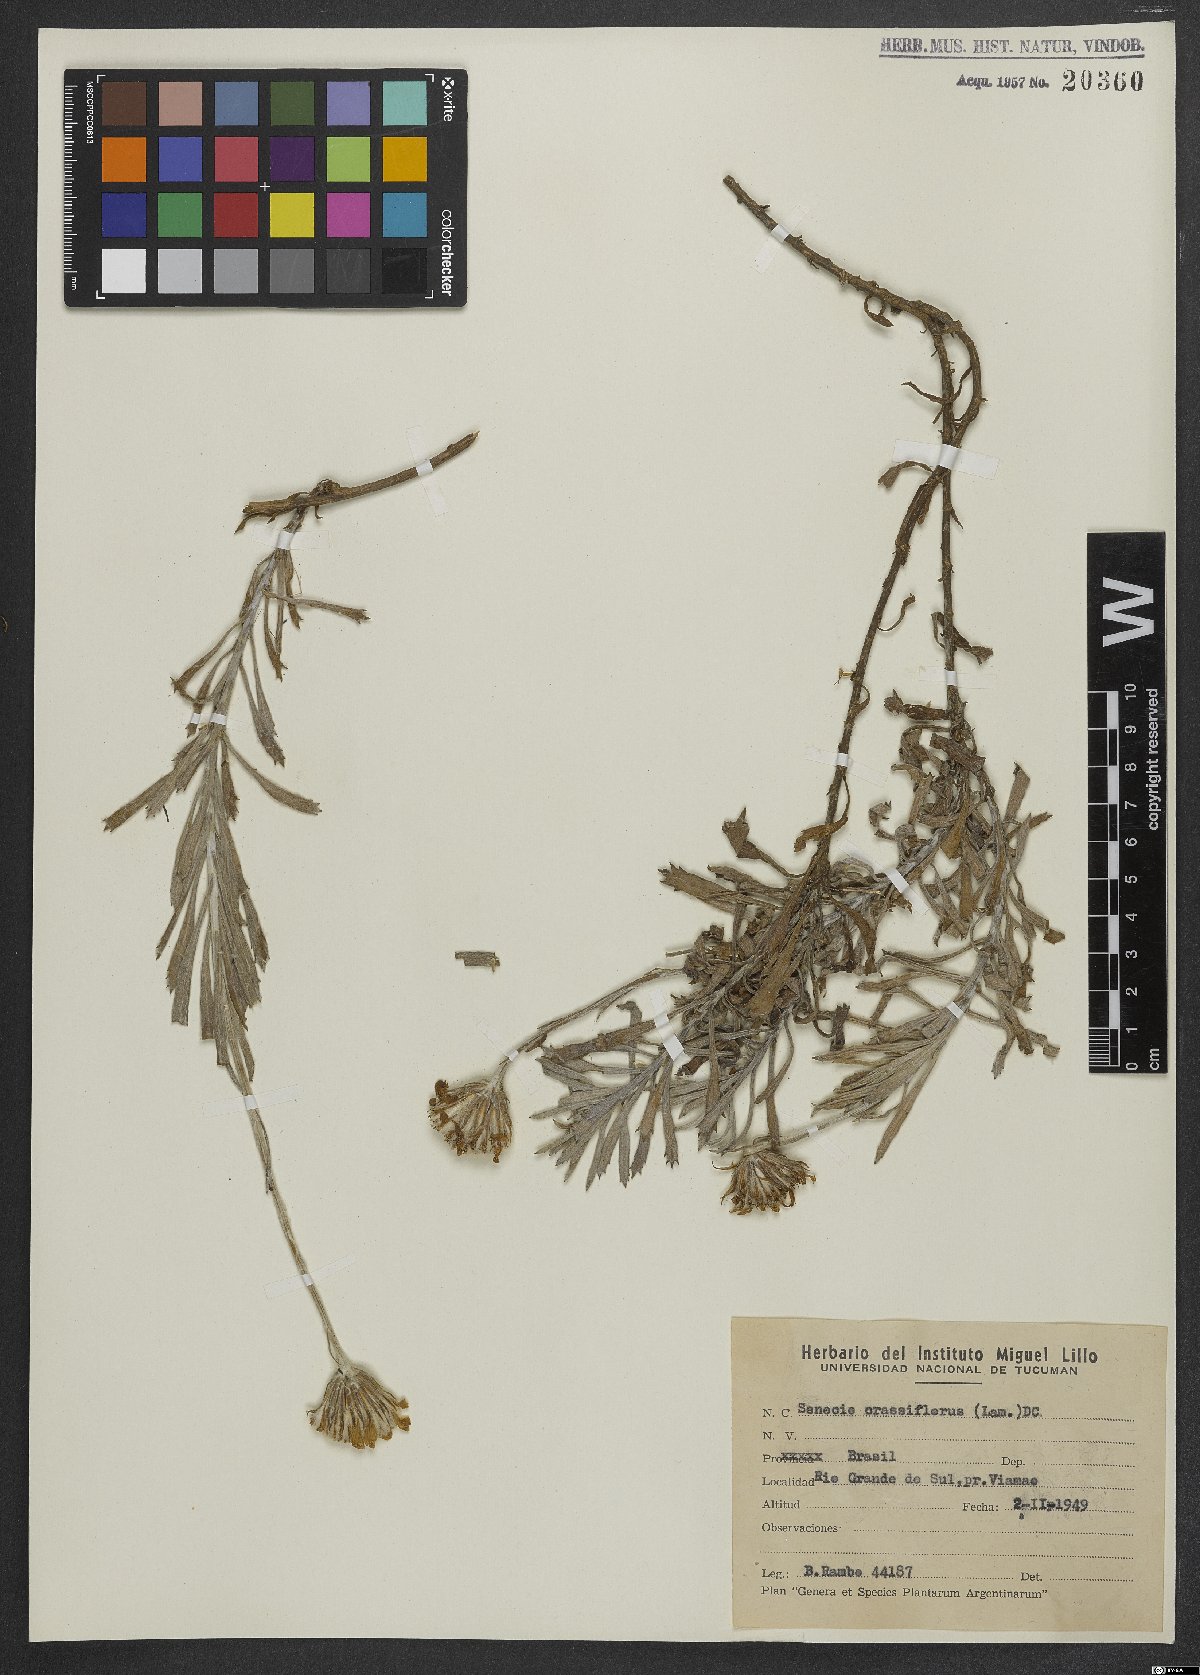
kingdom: Plantae
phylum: Tracheophyta
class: Magnoliopsida
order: Asterales
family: Asteraceae
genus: Senecio
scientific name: Senecio crassiflorus
